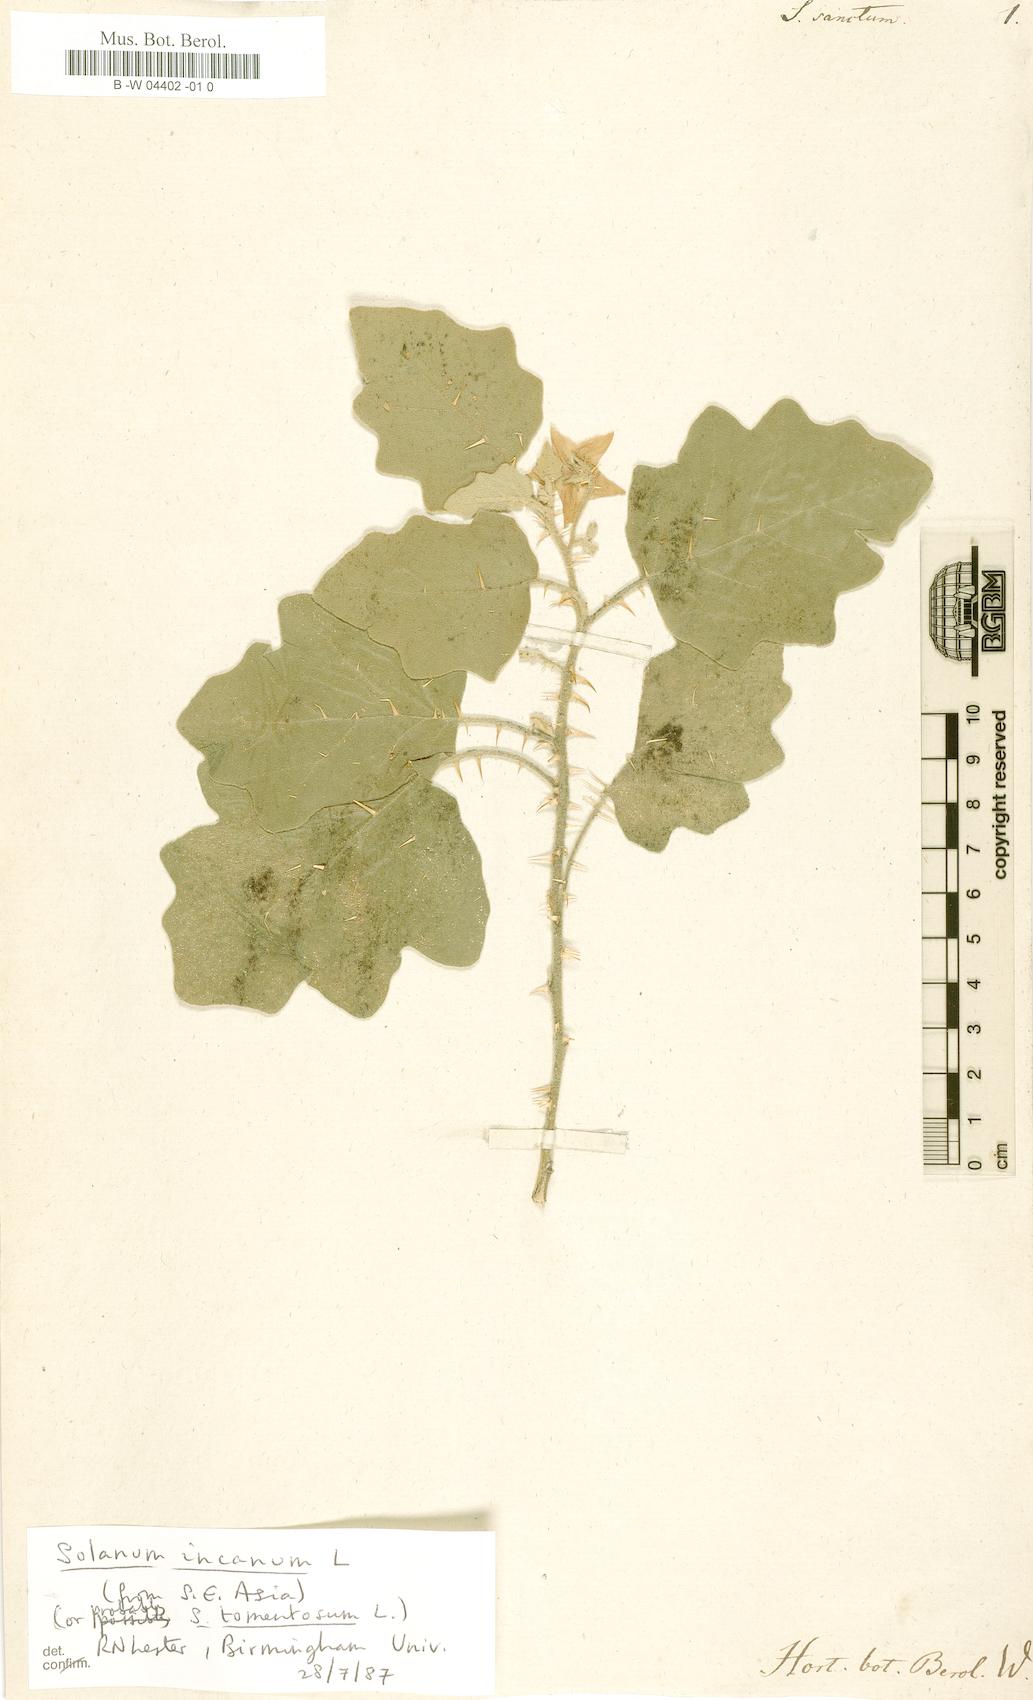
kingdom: Plantae
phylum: Tracheophyta
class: Magnoliopsida
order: Solanales
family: Solanaceae
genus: Solanum
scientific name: Solanum
